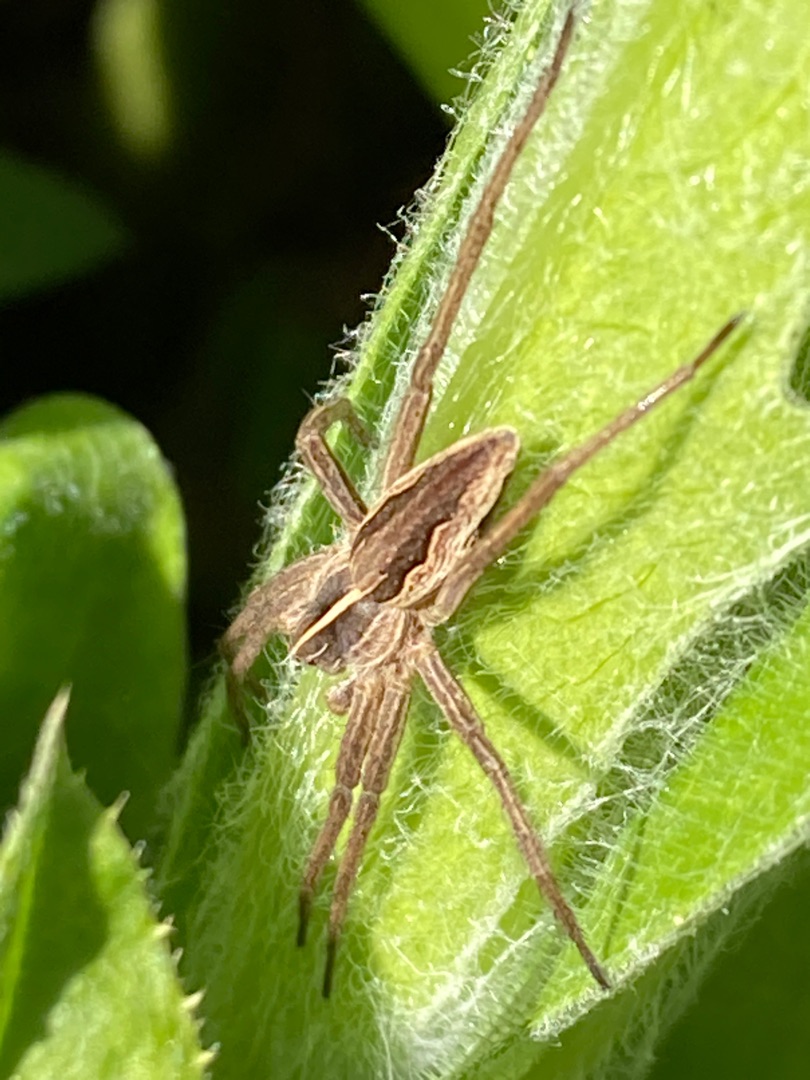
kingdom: Animalia
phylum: Arthropoda
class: Arachnida
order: Araneae
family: Pisauridae
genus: Pisaura
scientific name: Pisaura mirabilis
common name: Almindelig rovedderkop
